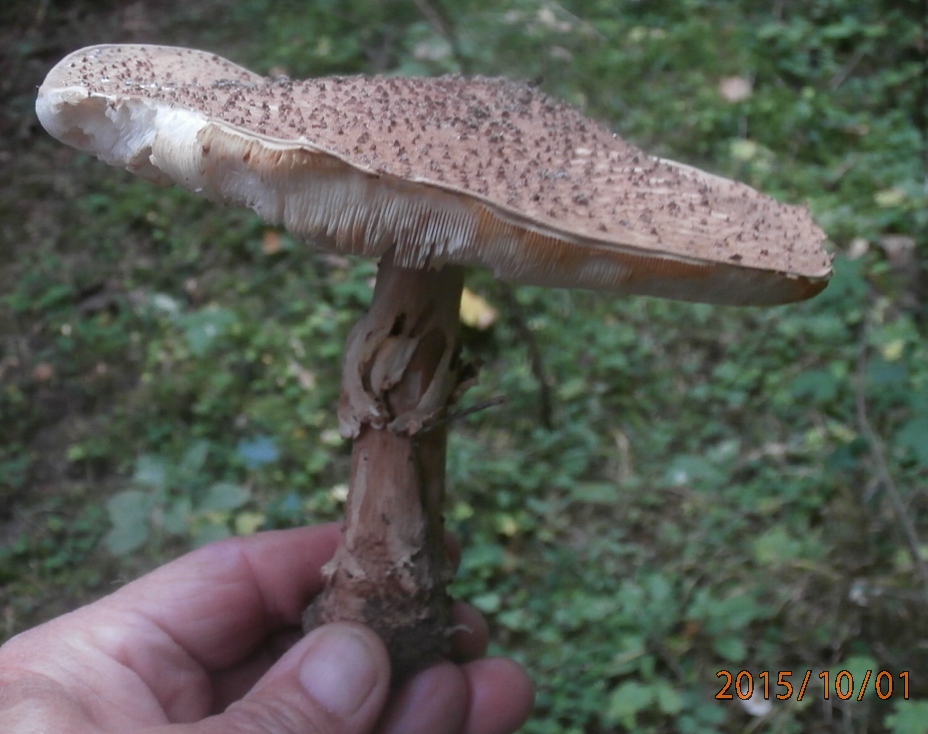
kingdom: Fungi
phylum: Basidiomycota
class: Agaricomycetes
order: Agaricales
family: Agaricaceae
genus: Echinoderma
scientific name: Echinoderma asperum
